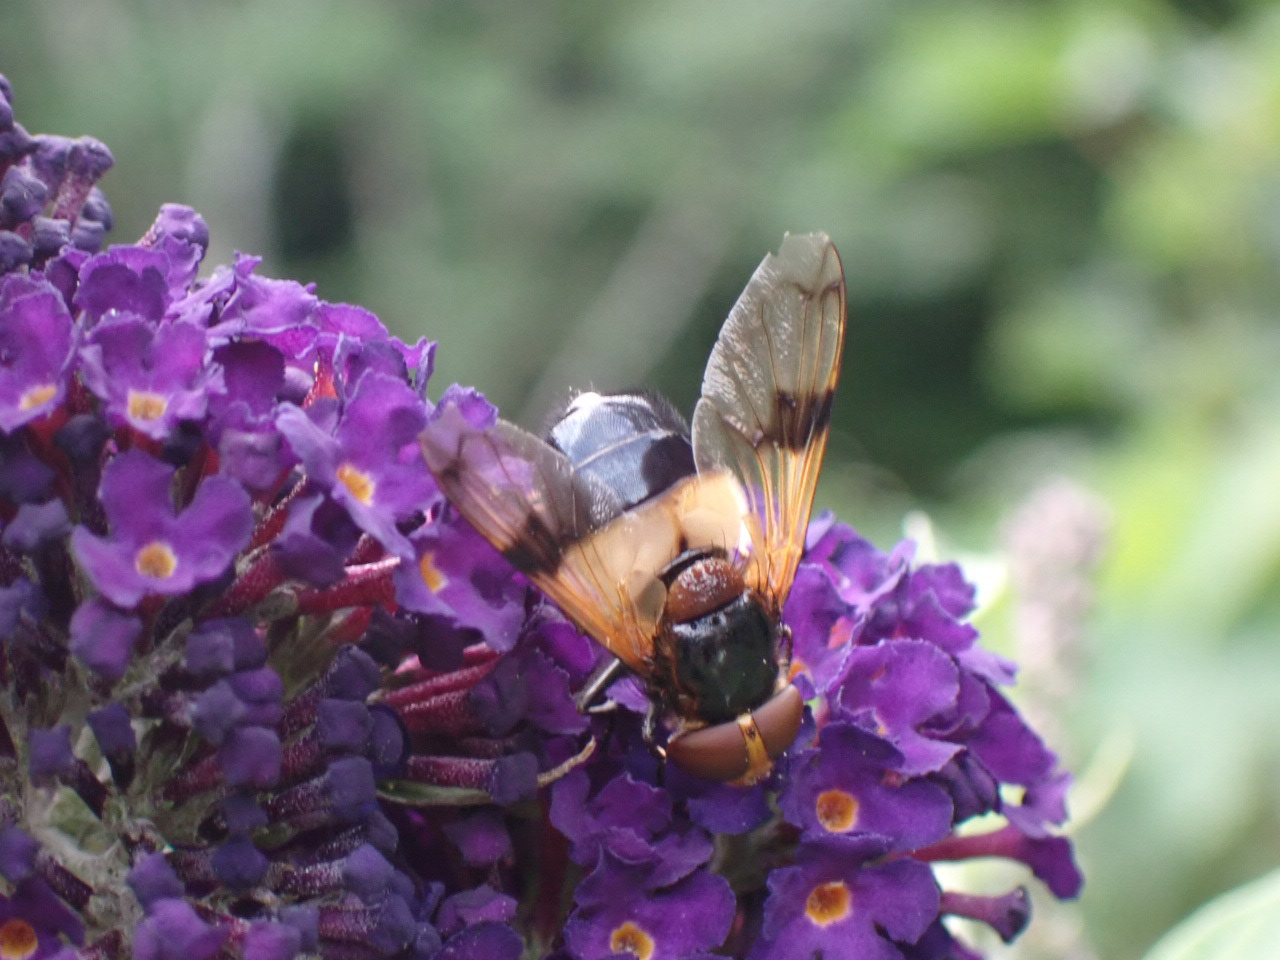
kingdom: Animalia
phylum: Arthropoda
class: Insecta
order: Diptera
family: Syrphidae
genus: Volucella
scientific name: Volucella pellucens
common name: Hvidbåndet humlesvirreflue
